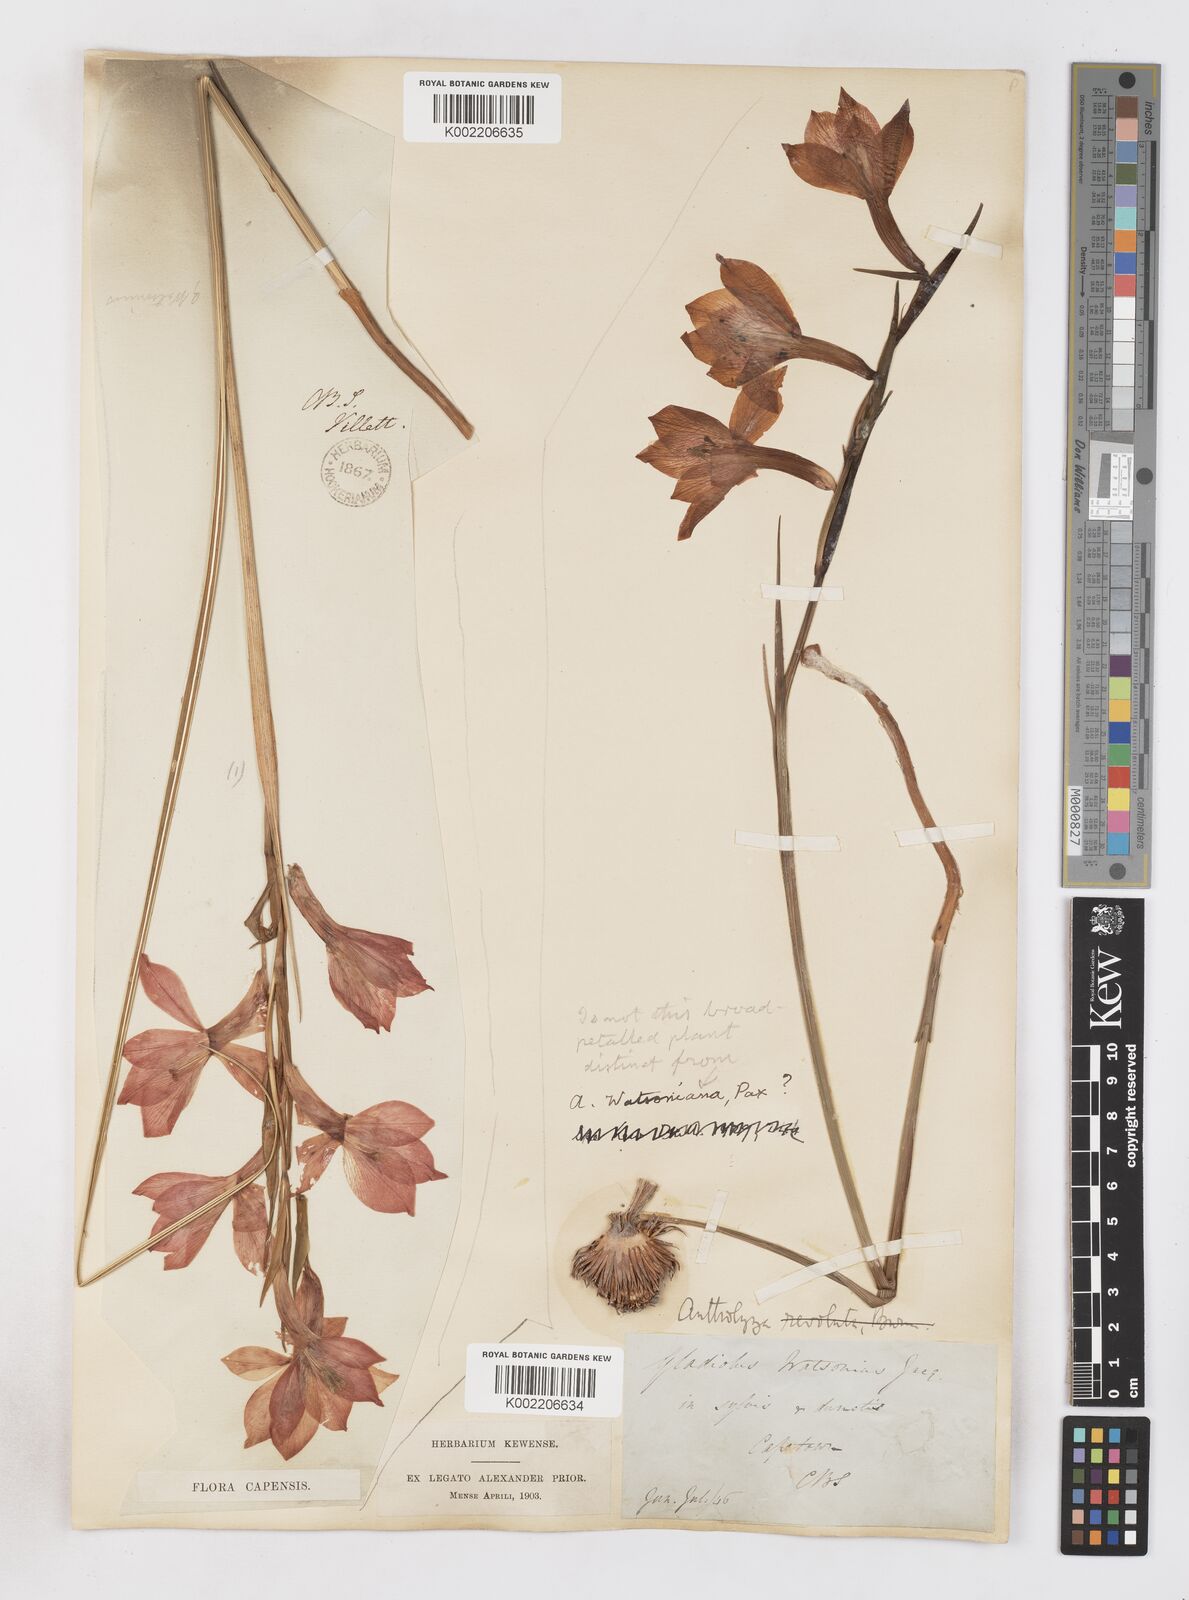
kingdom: Plantae
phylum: Tracheophyta
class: Liliopsida
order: Asparagales
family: Iridaceae
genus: Gladiolus
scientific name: Gladiolus
